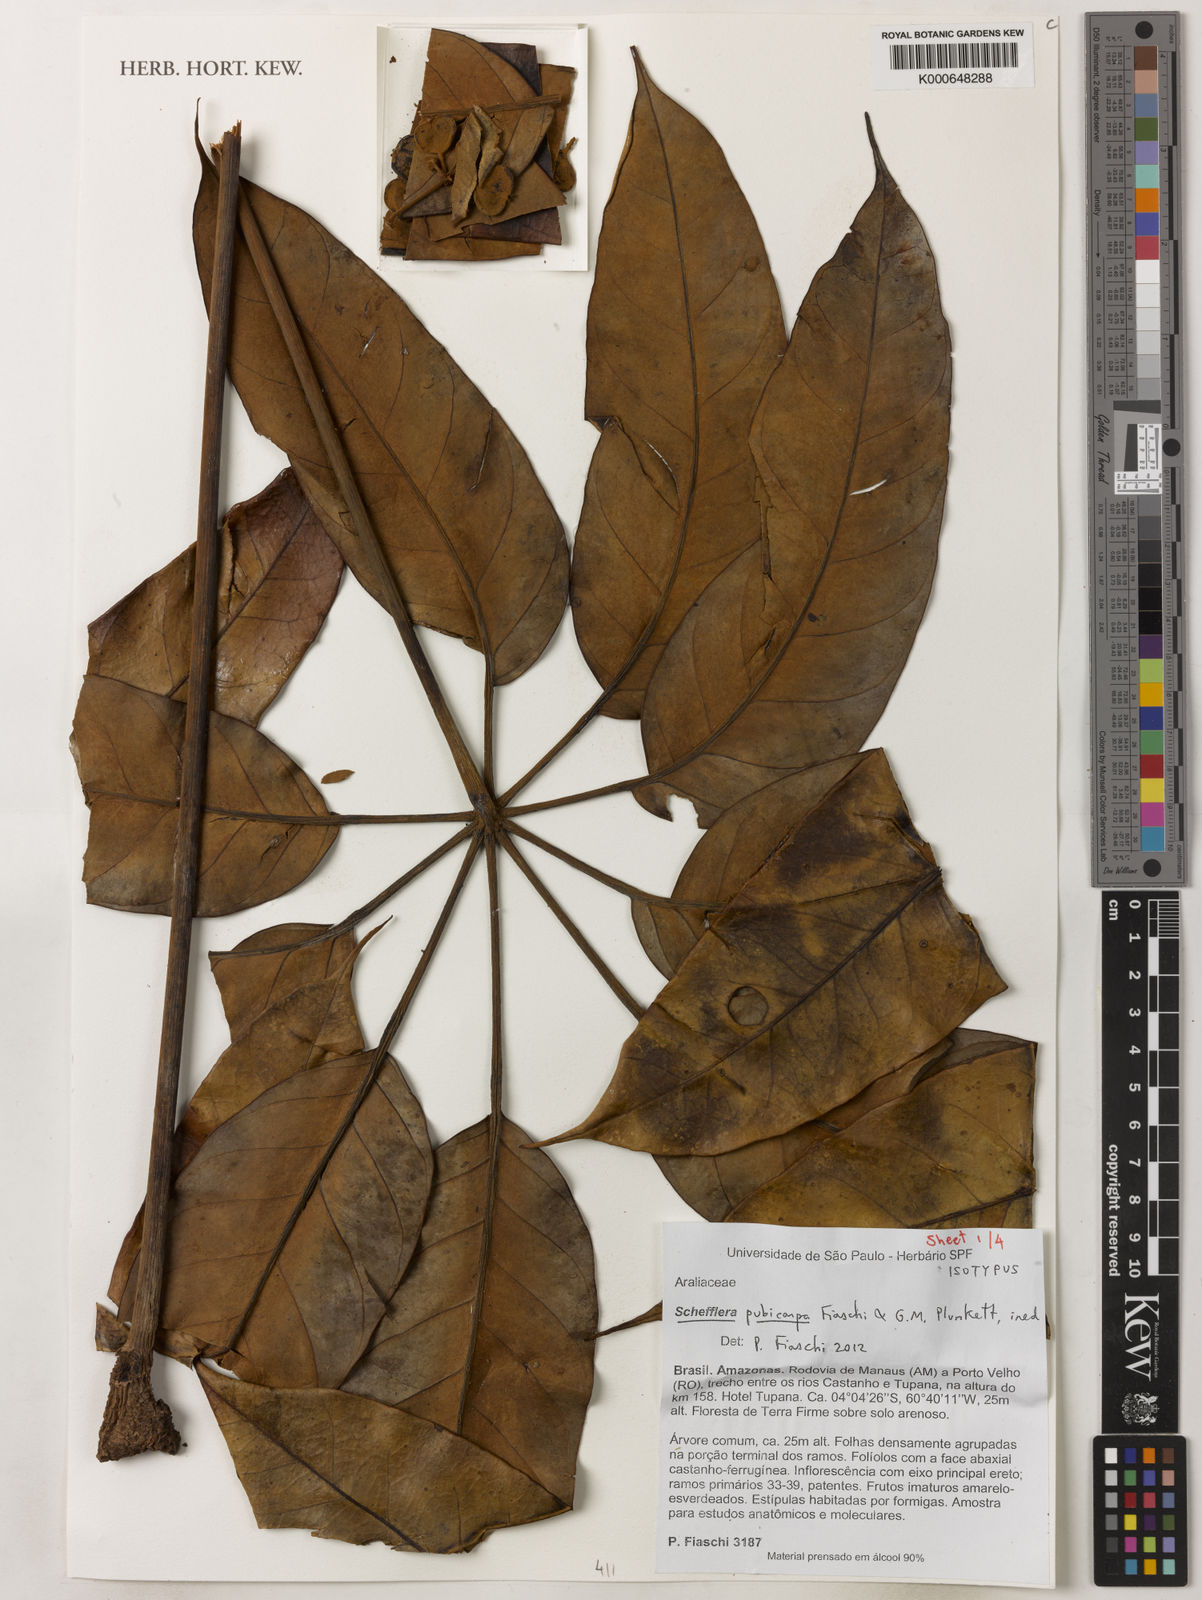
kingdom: Plantae
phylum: Tracheophyta
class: Magnoliopsida
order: Apiales
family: Araliaceae
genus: Didymopanax
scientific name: Didymopanax pubicarpus
